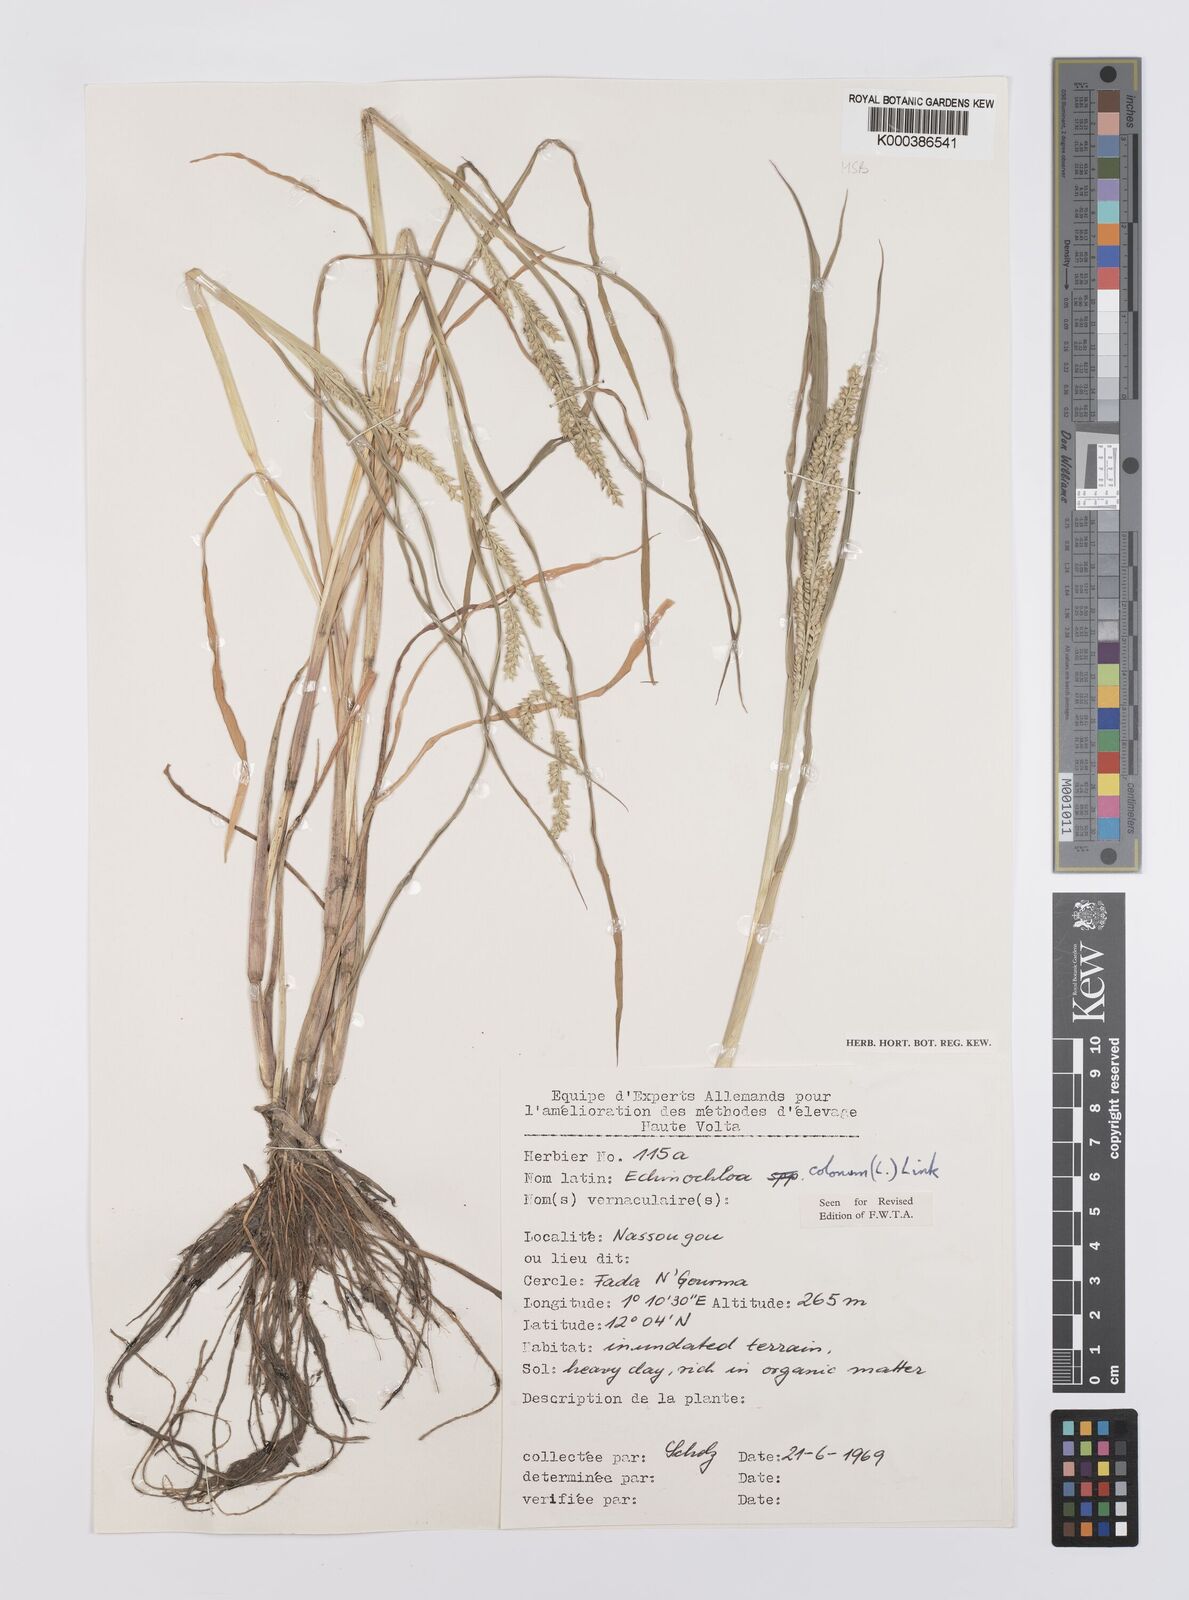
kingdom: Plantae
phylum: Tracheophyta
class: Liliopsida
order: Poales
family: Poaceae
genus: Echinochloa
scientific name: Echinochloa colonum
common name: Jungle rice
